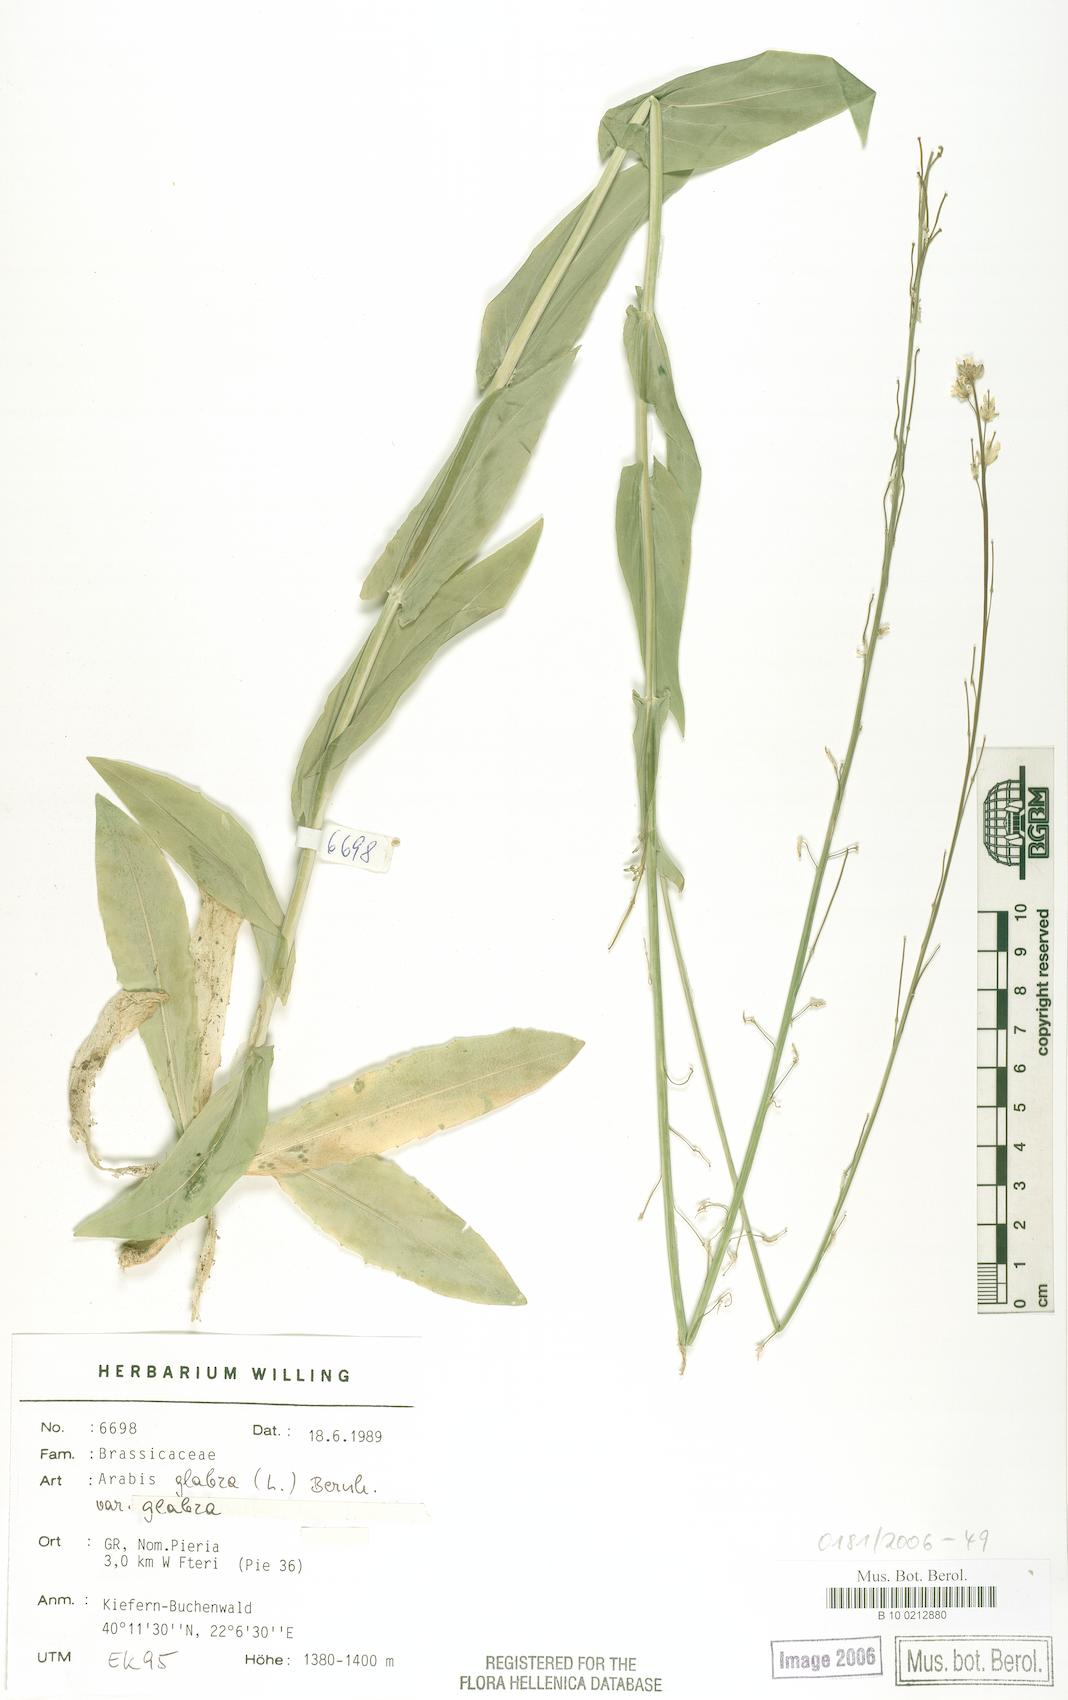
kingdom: Plantae
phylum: Tracheophyta
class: Magnoliopsida
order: Brassicales
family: Brassicaceae
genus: Turritis
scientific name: Turritis glabra
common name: Tower rockcress
